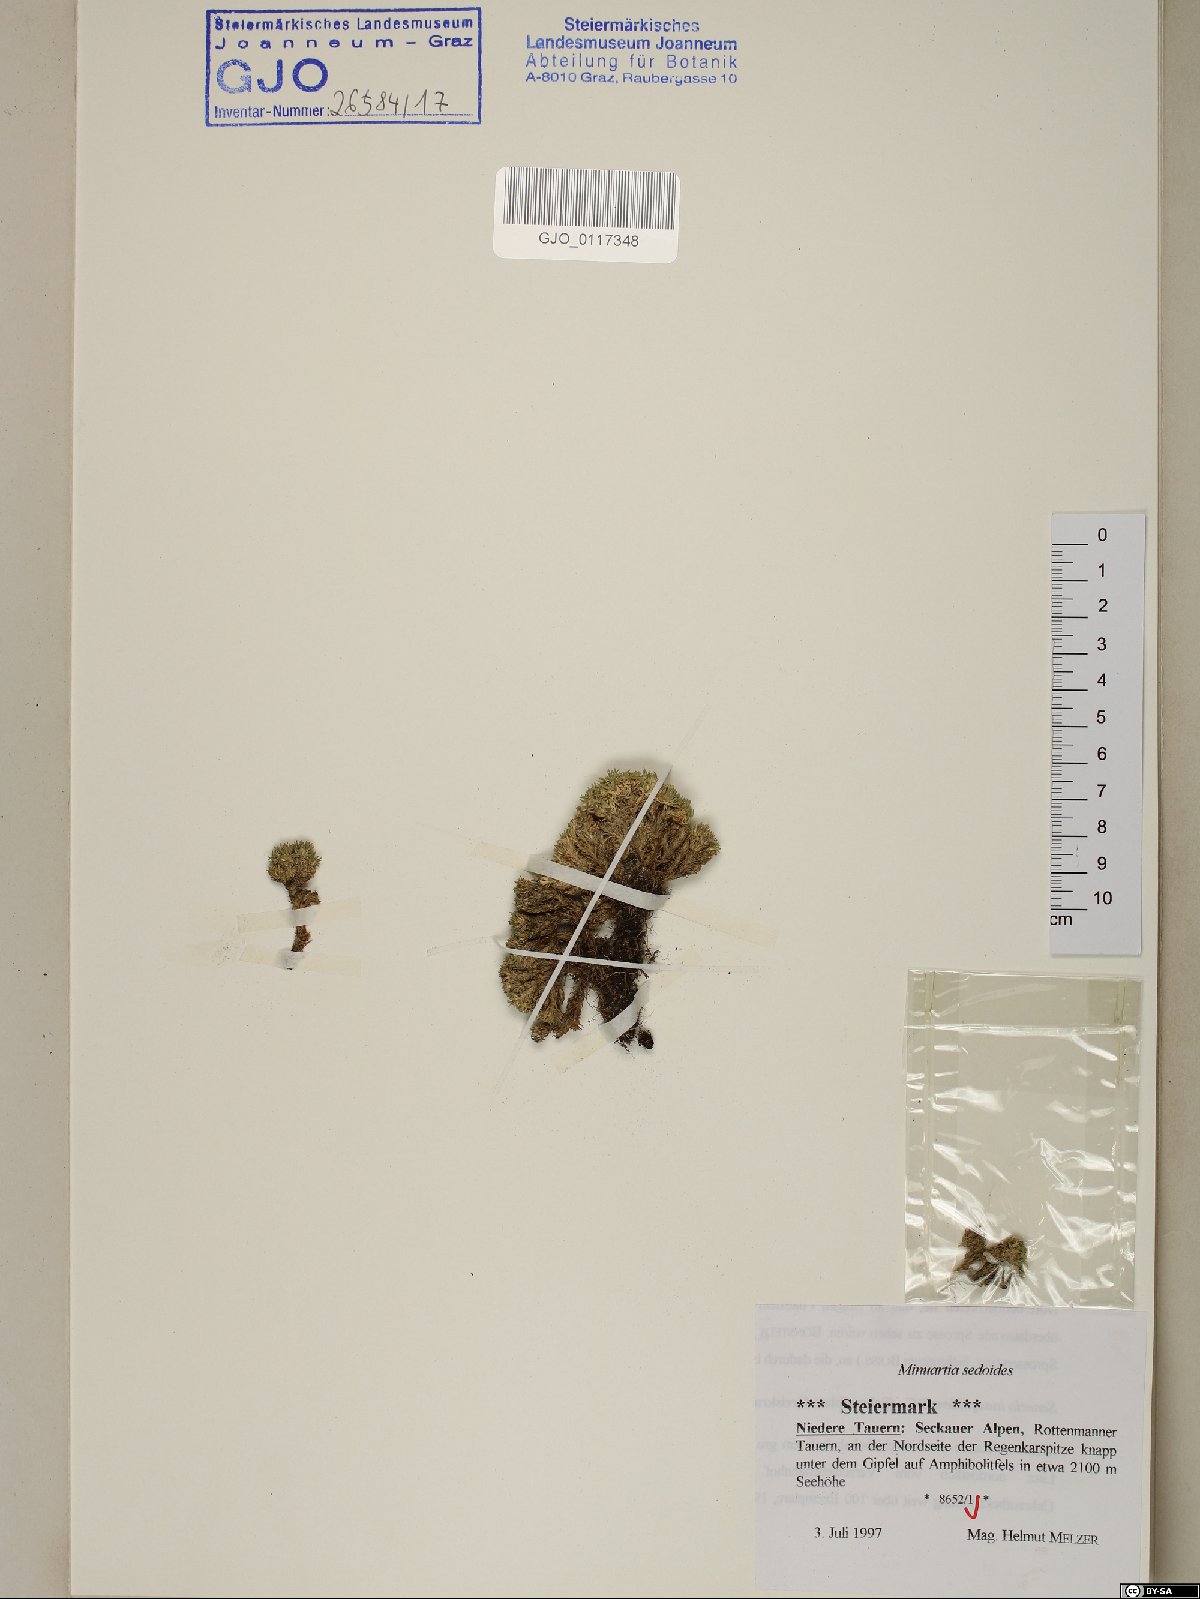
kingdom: Plantae
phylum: Tracheophyta
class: Magnoliopsida
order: Caryophyllales
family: Caryophyllaceae
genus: Cherleria
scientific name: Cherleria sedoides
